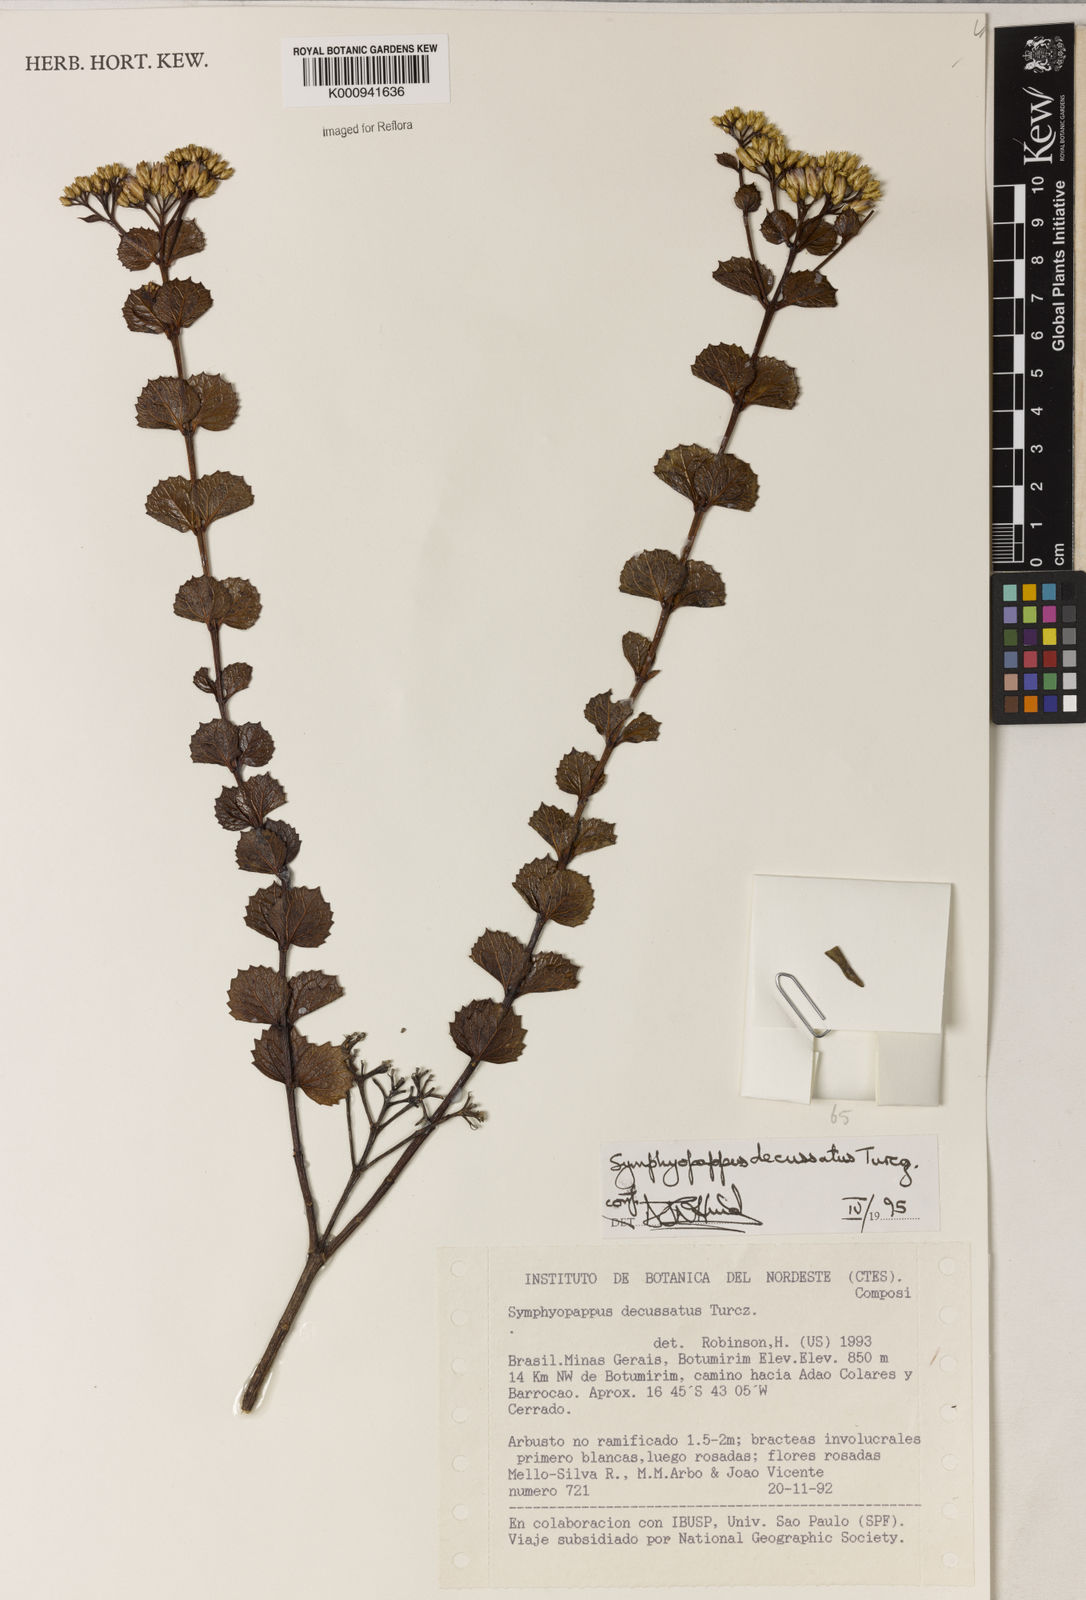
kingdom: Plantae
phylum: Tracheophyta
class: Magnoliopsida
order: Asterales
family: Asteraceae
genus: Symphyopappus
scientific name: Symphyopappus decussatus
